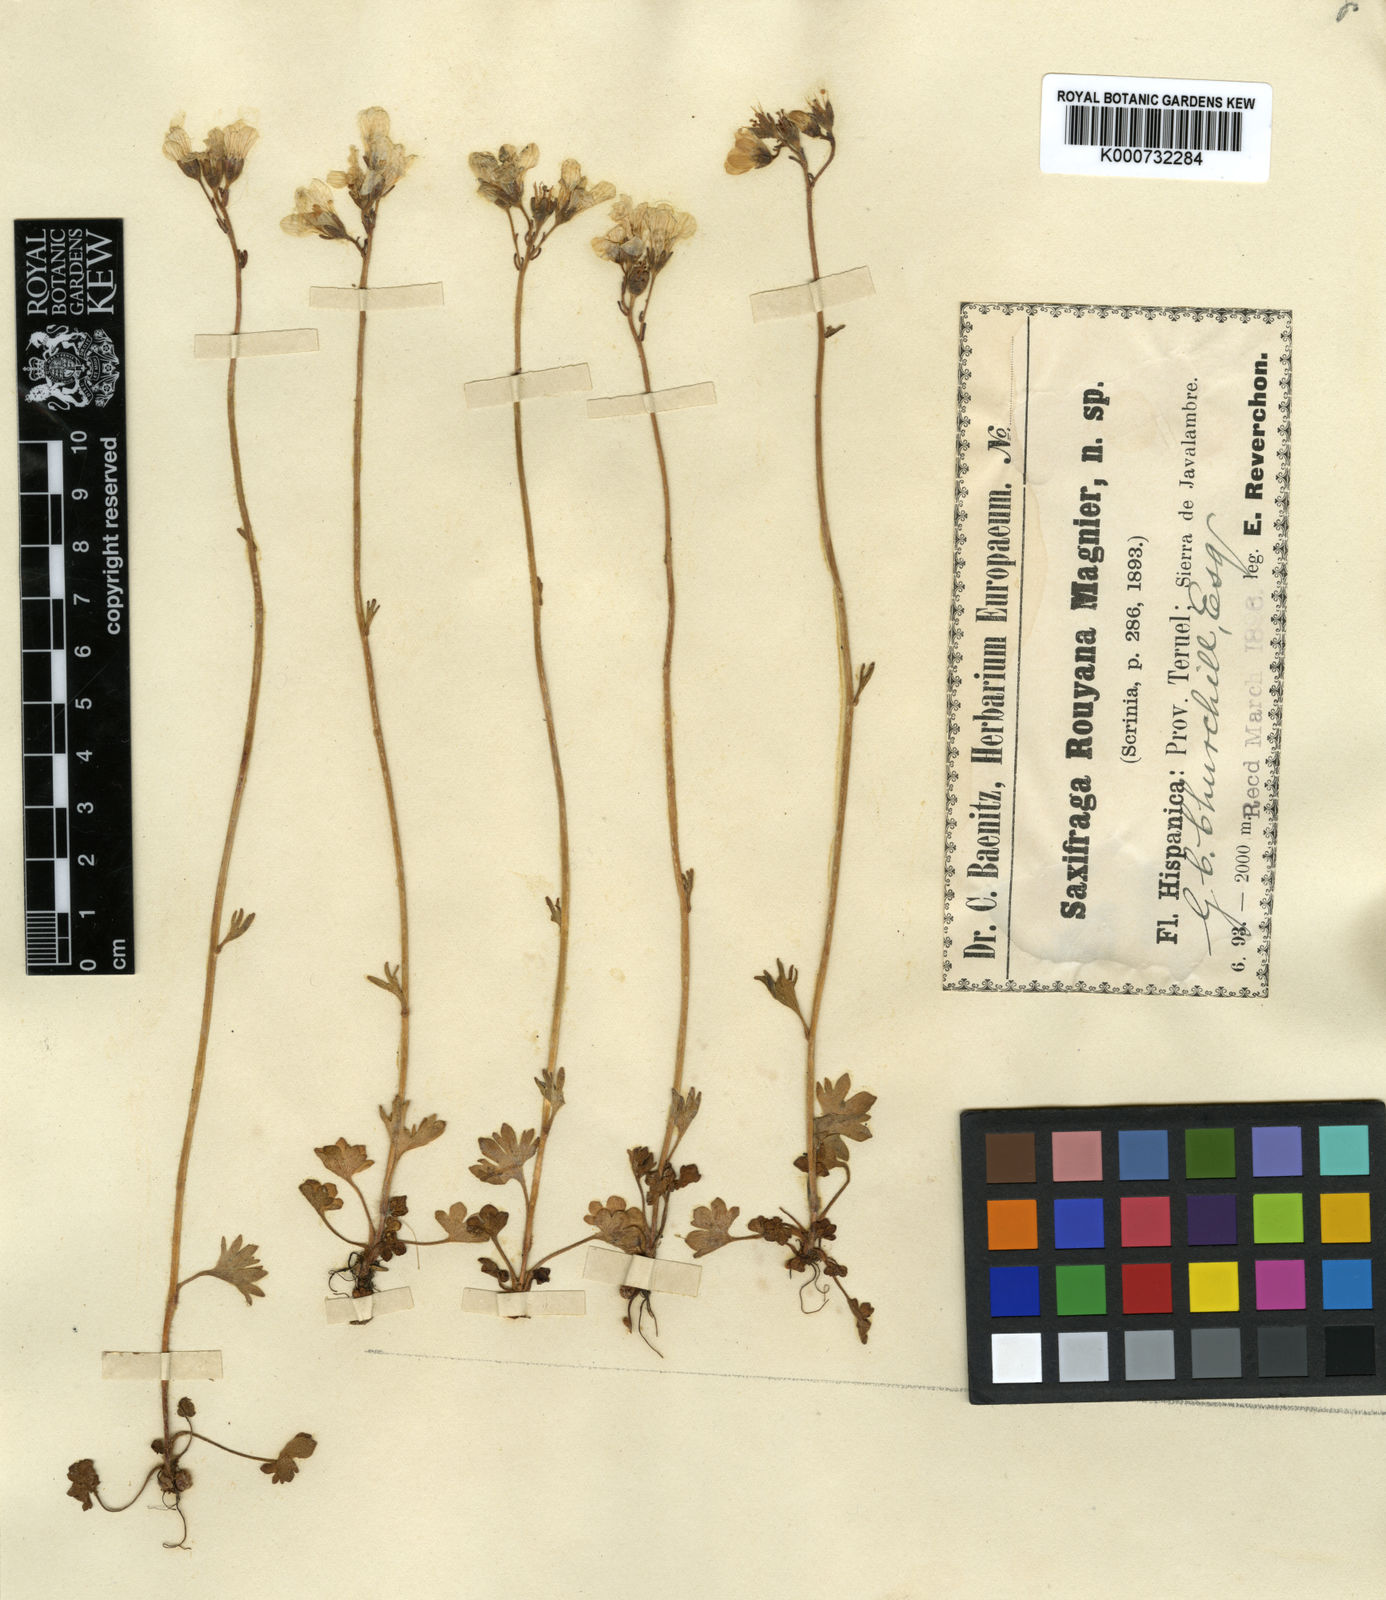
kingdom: Plantae
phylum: Tracheophyta
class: Magnoliopsida
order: Saxifragales
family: Saxifragaceae
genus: Saxifraga
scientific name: Saxifraga granulata
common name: Meadow saxifrage
